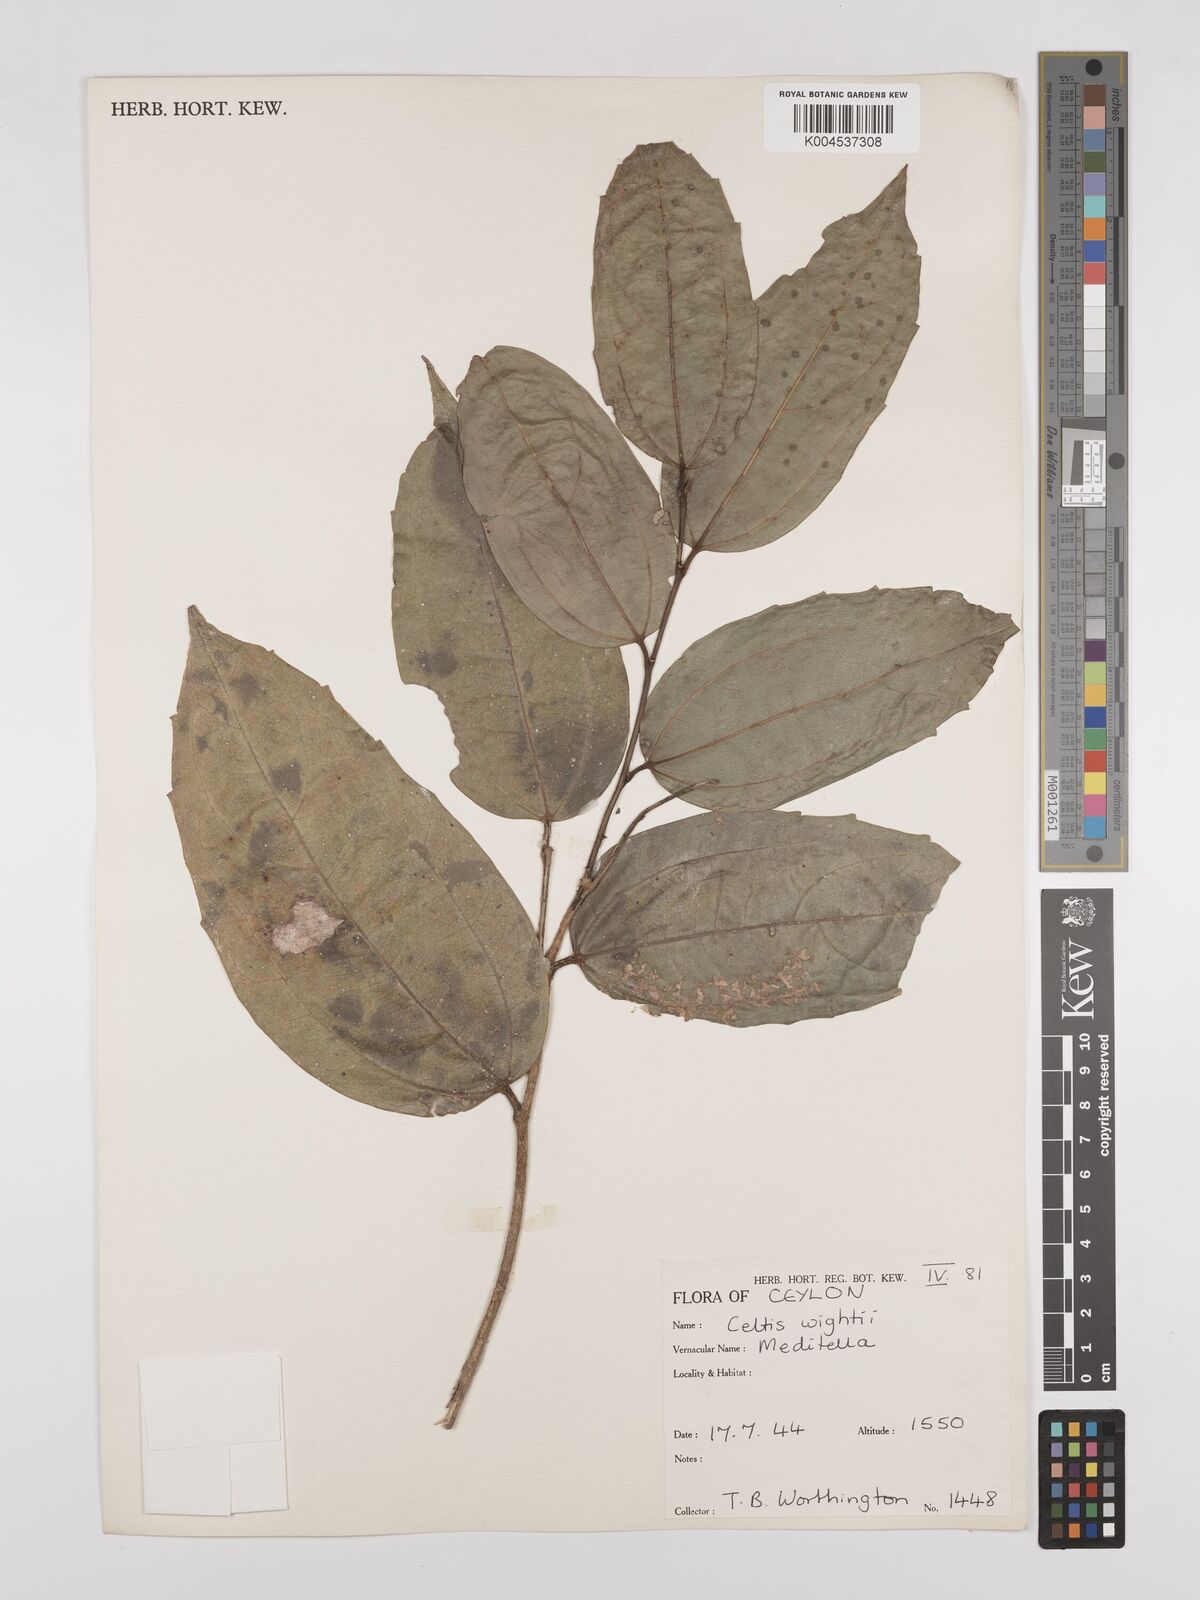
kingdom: Plantae
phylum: Tracheophyta
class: Magnoliopsida
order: Rosales
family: Cannabaceae
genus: Celtis
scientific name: Celtis philippensis
